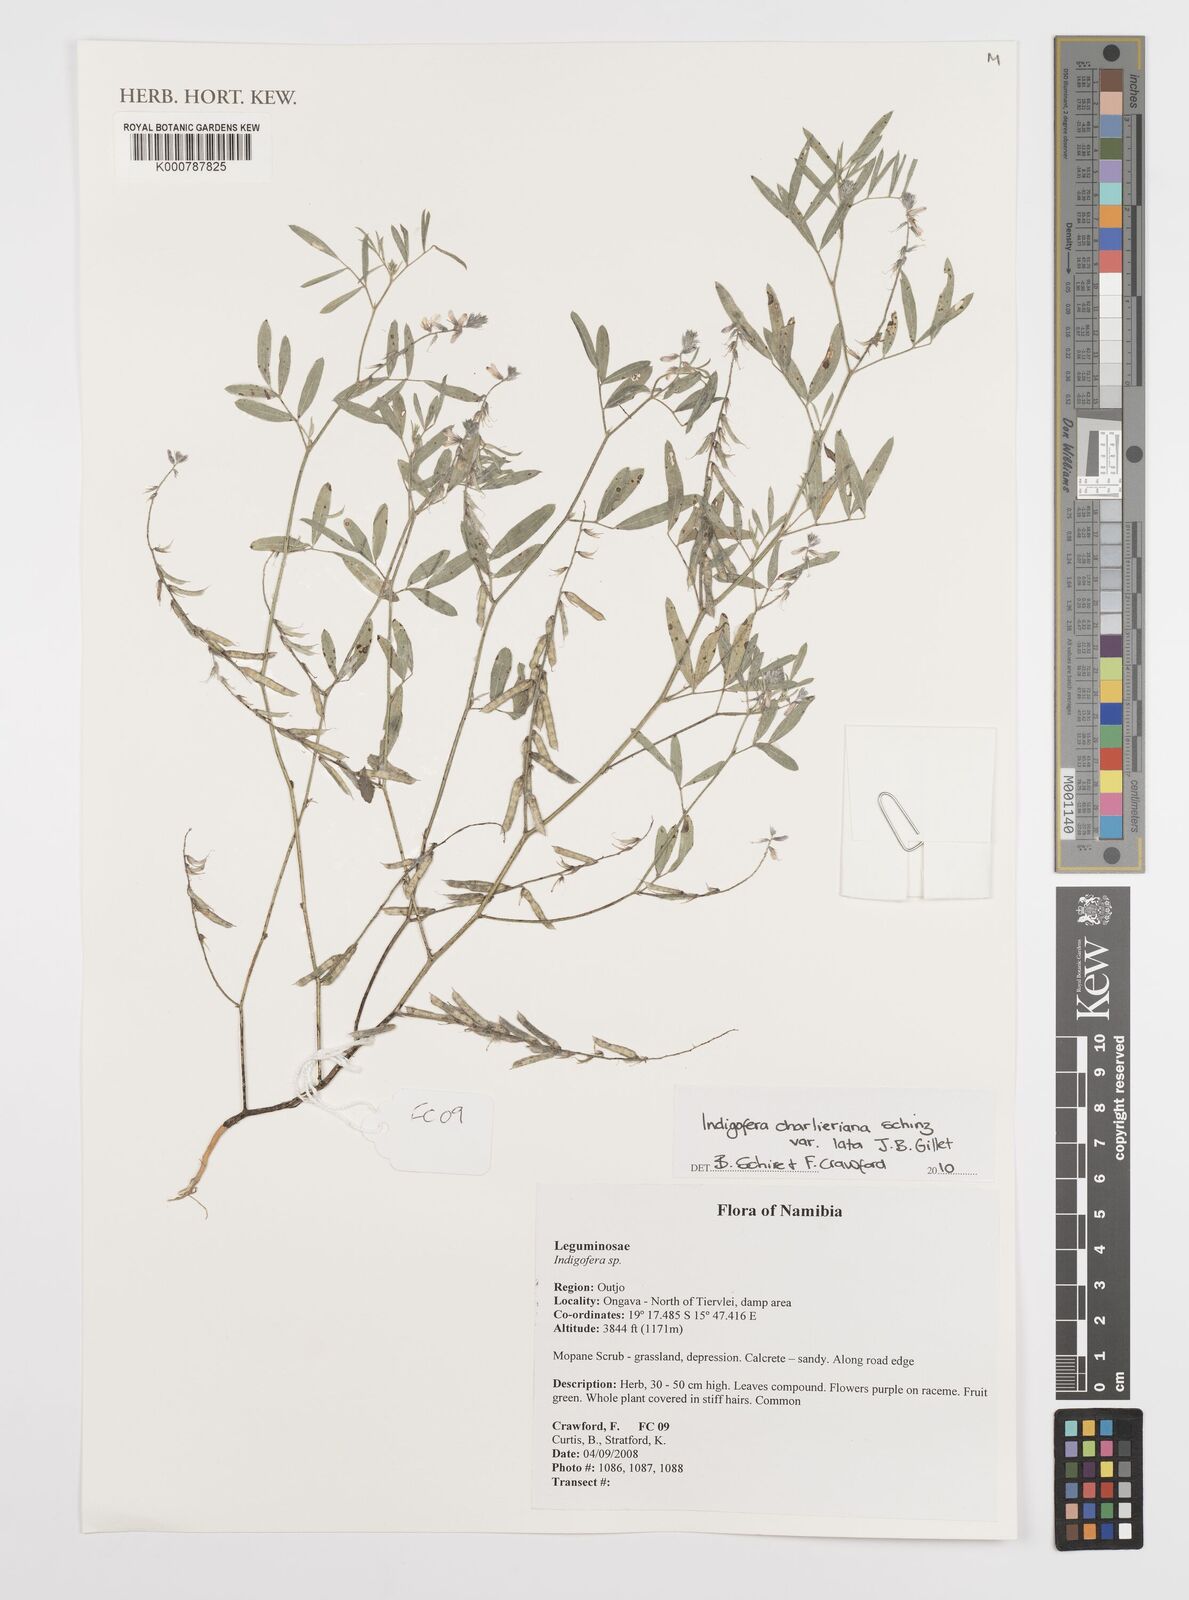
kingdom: Plantae
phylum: Tracheophyta
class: Magnoliopsida
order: Fabales
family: Fabaceae
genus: Indigofera
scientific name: Indigofera charlieriana
